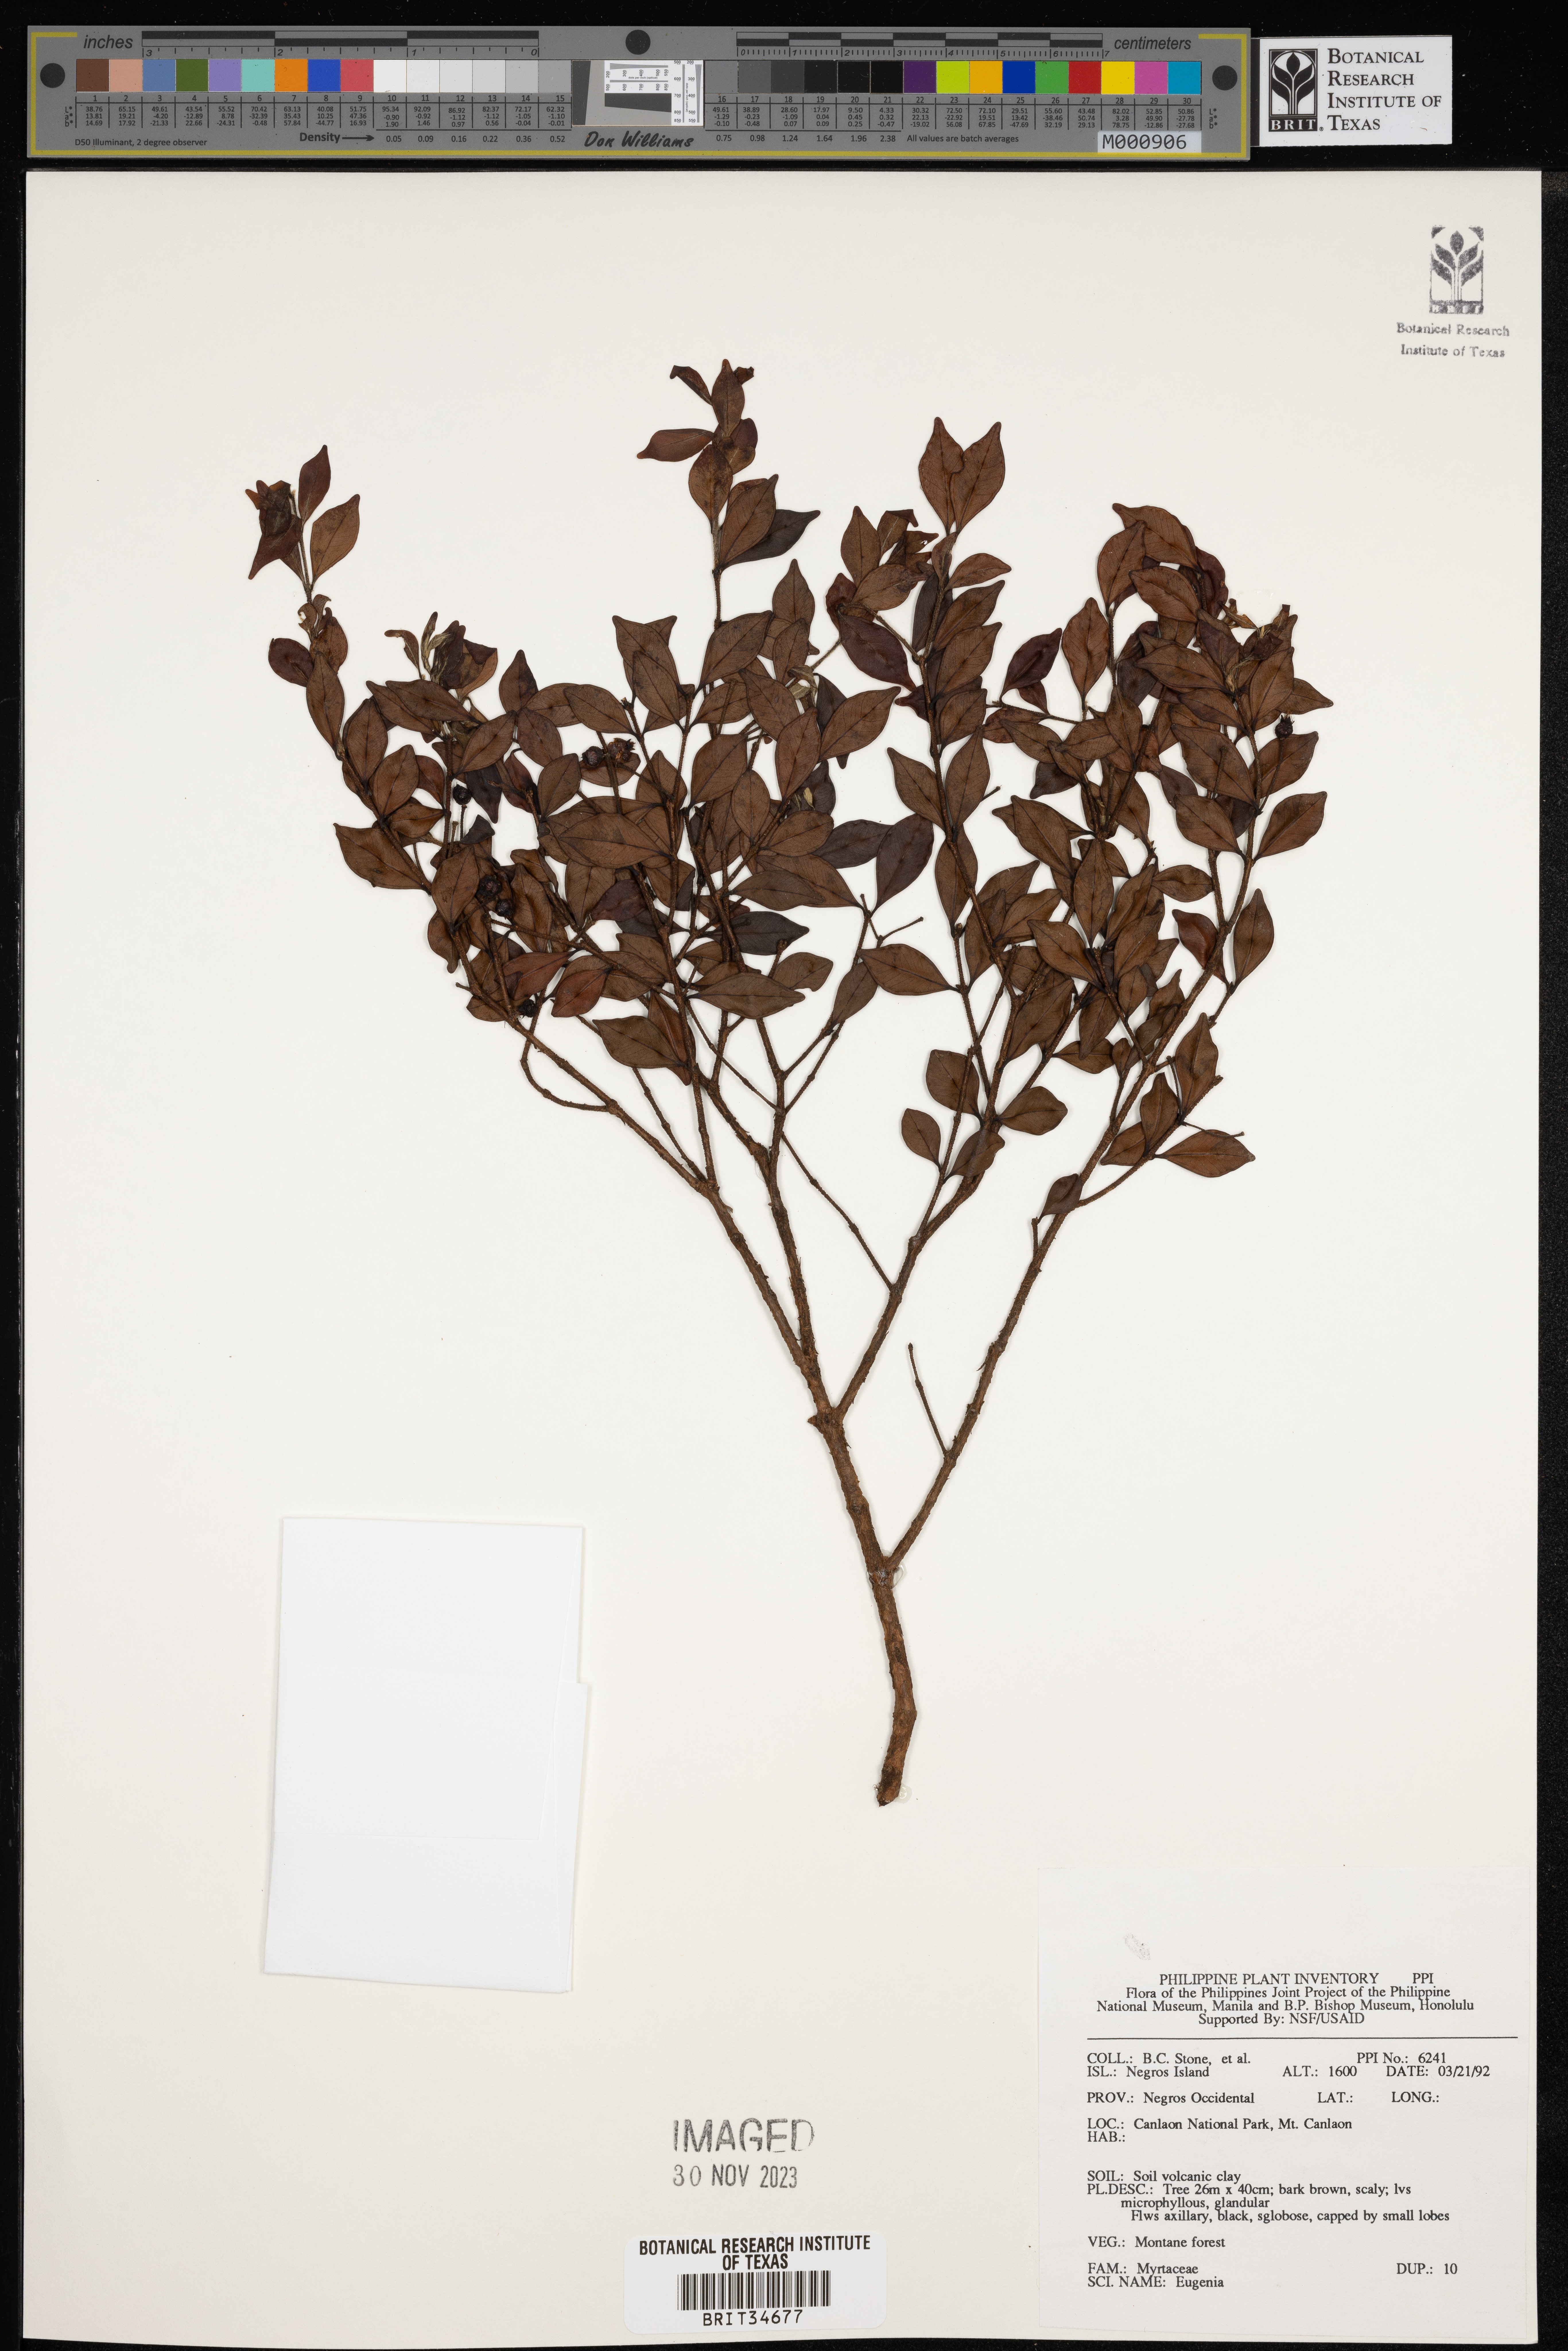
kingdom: Plantae
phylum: Tracheophyta
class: Magnoliopsida
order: Myrtales
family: Myrtaceae
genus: Eugenia
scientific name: Eugenia
